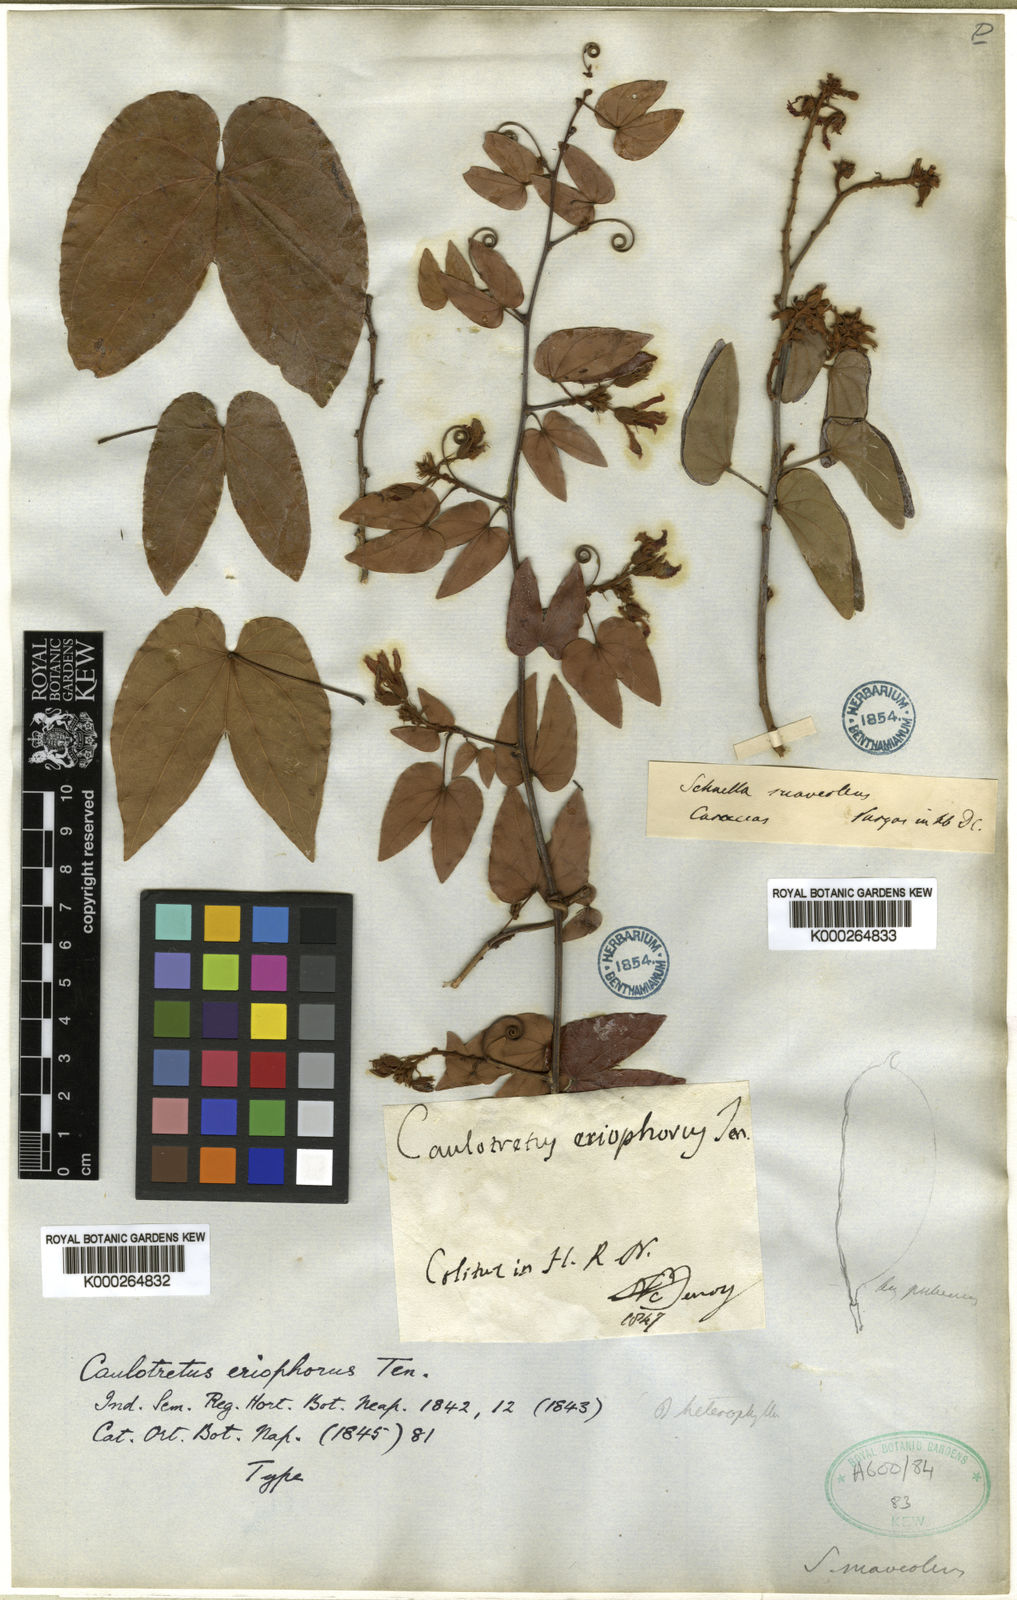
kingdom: Plantae
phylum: Tracheophyta
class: Magnoliopsida
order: Fabales
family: Fabaceae
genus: Schnella
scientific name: Schnella glabra
